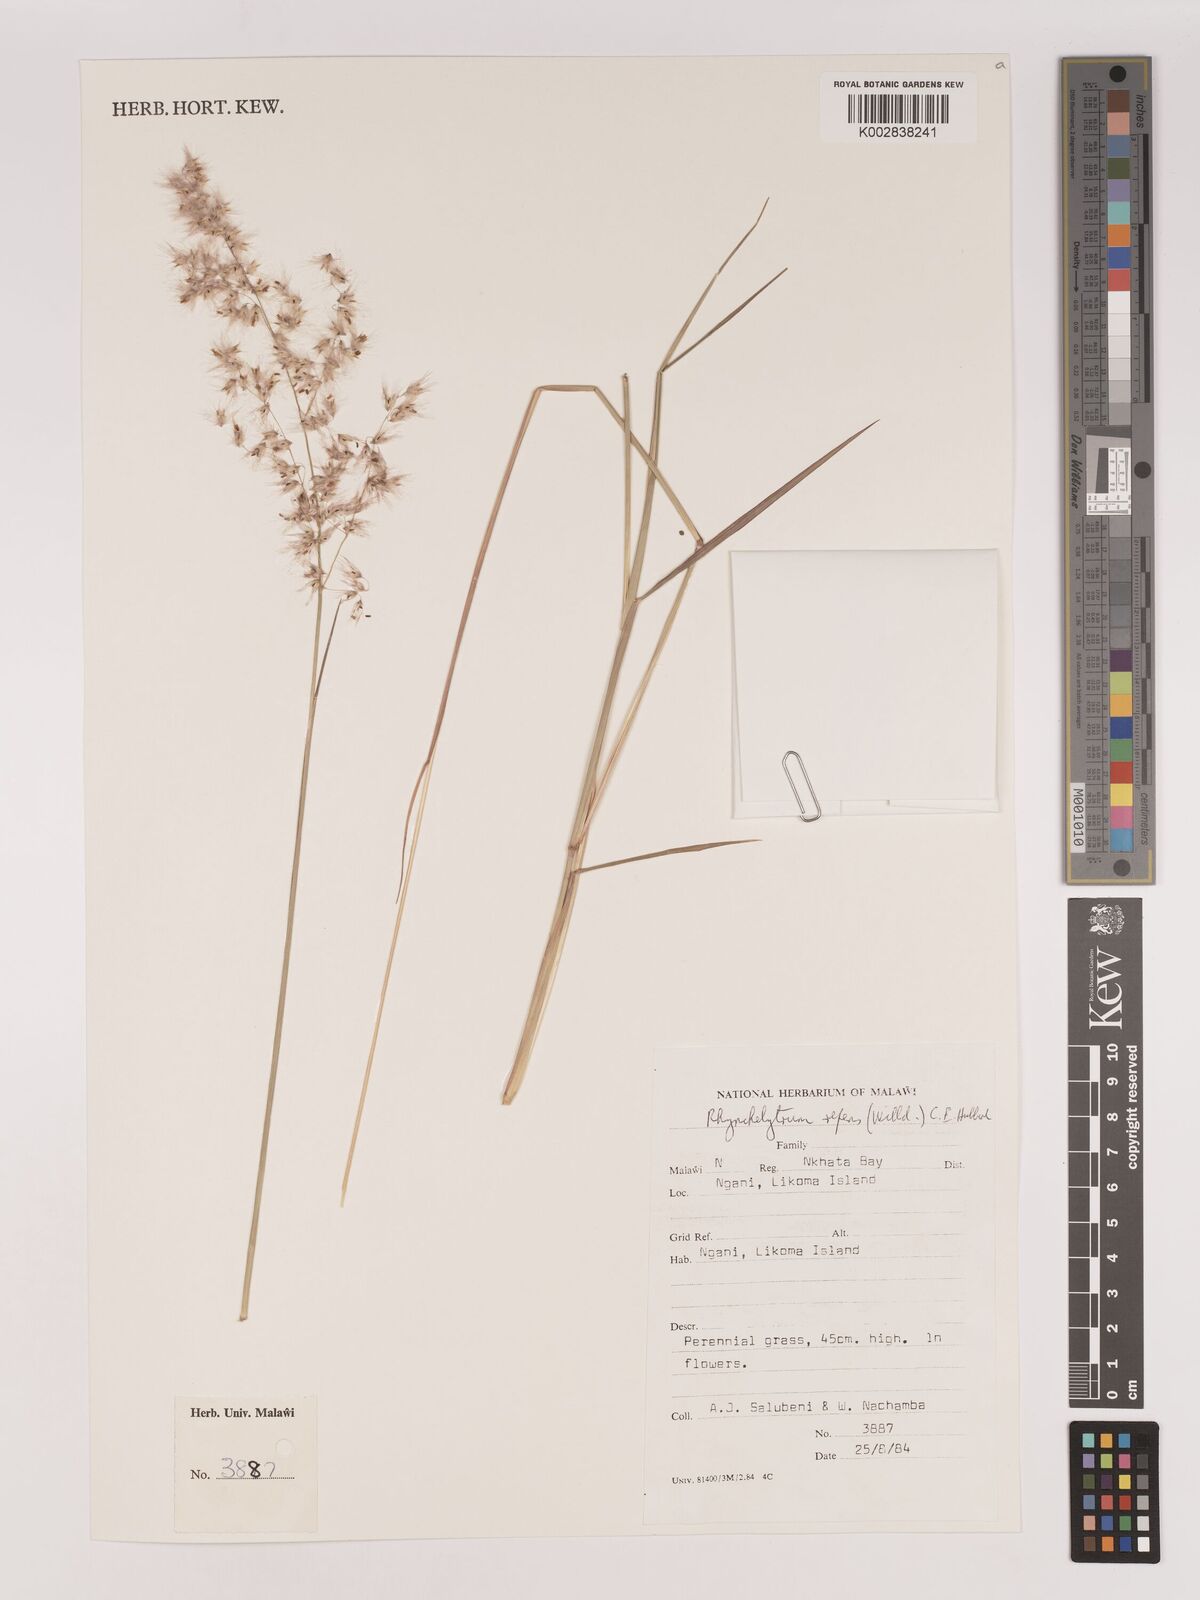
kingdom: Plantae
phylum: Tracheophyta
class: Liliopsida
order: Poales
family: Poaceae
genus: Melinis
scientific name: Melinis repens
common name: Rose natal grass
